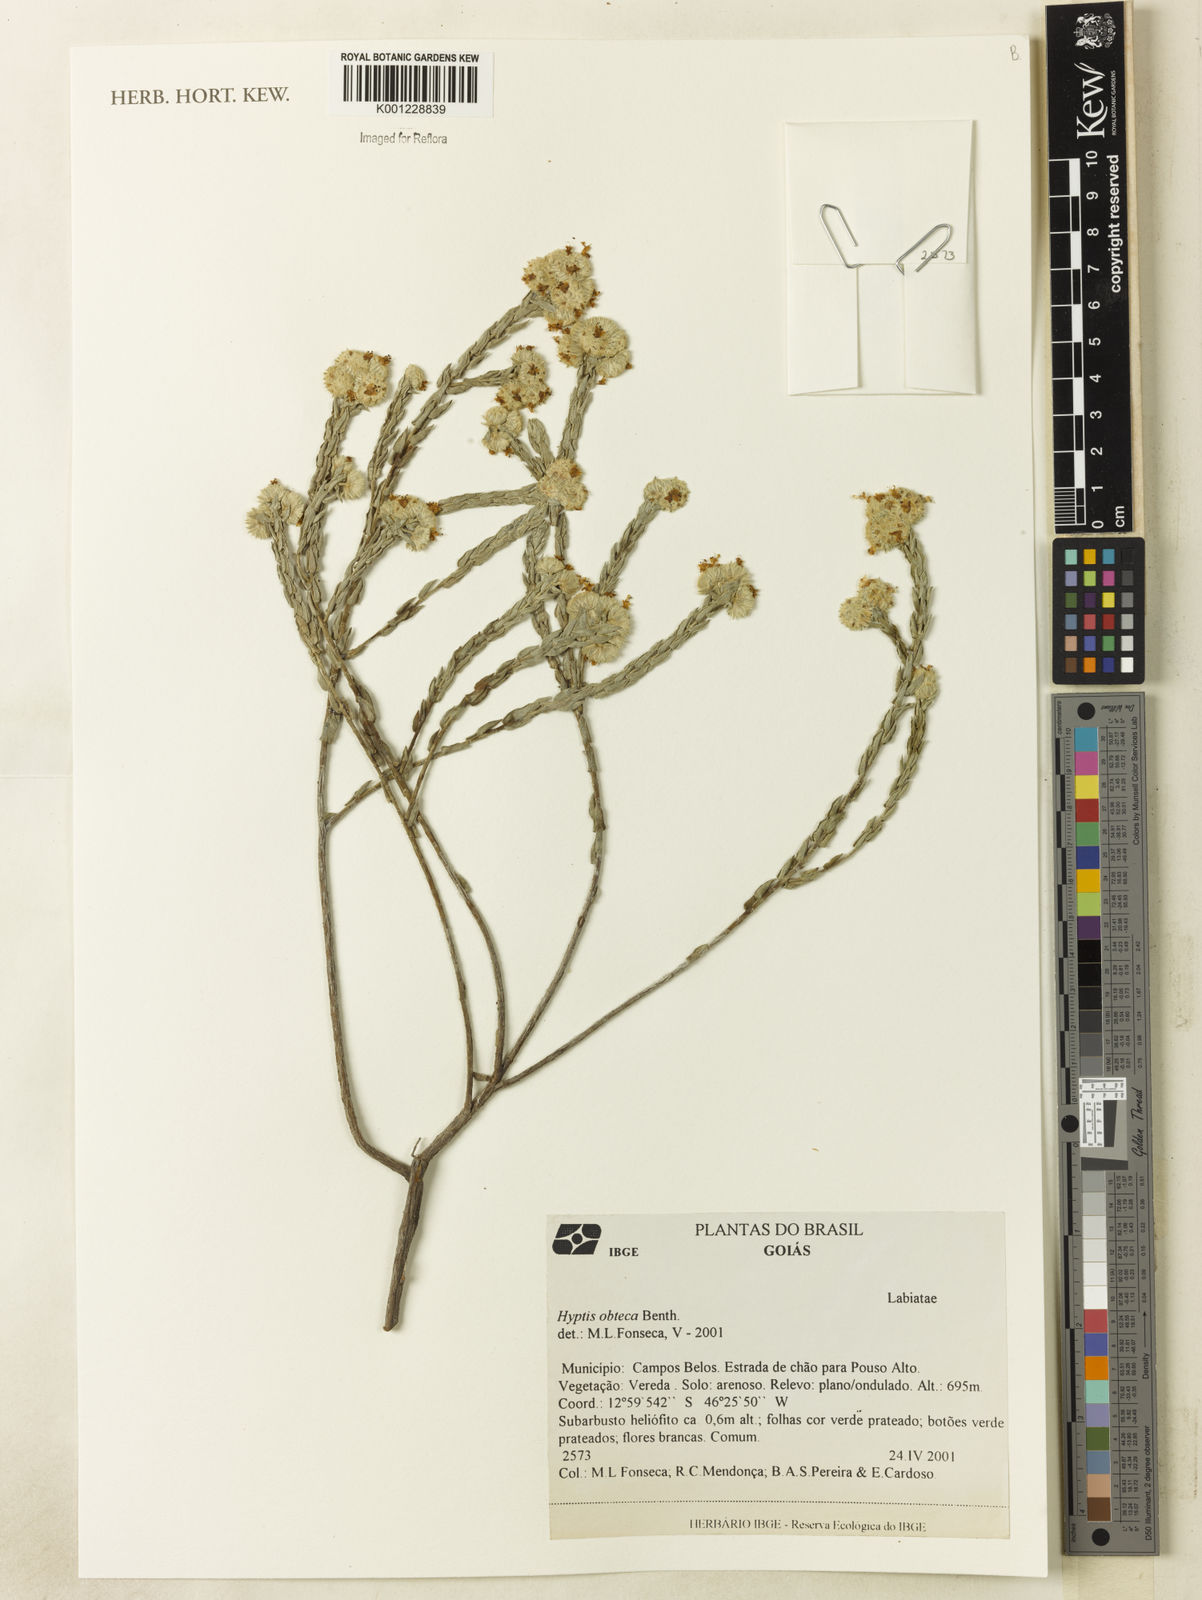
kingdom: Plantae
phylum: Tracheophyta
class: Magnoliopsida
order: Lamiales
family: Lamiaceae
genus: Hyptis
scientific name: Hyptis obtecta
